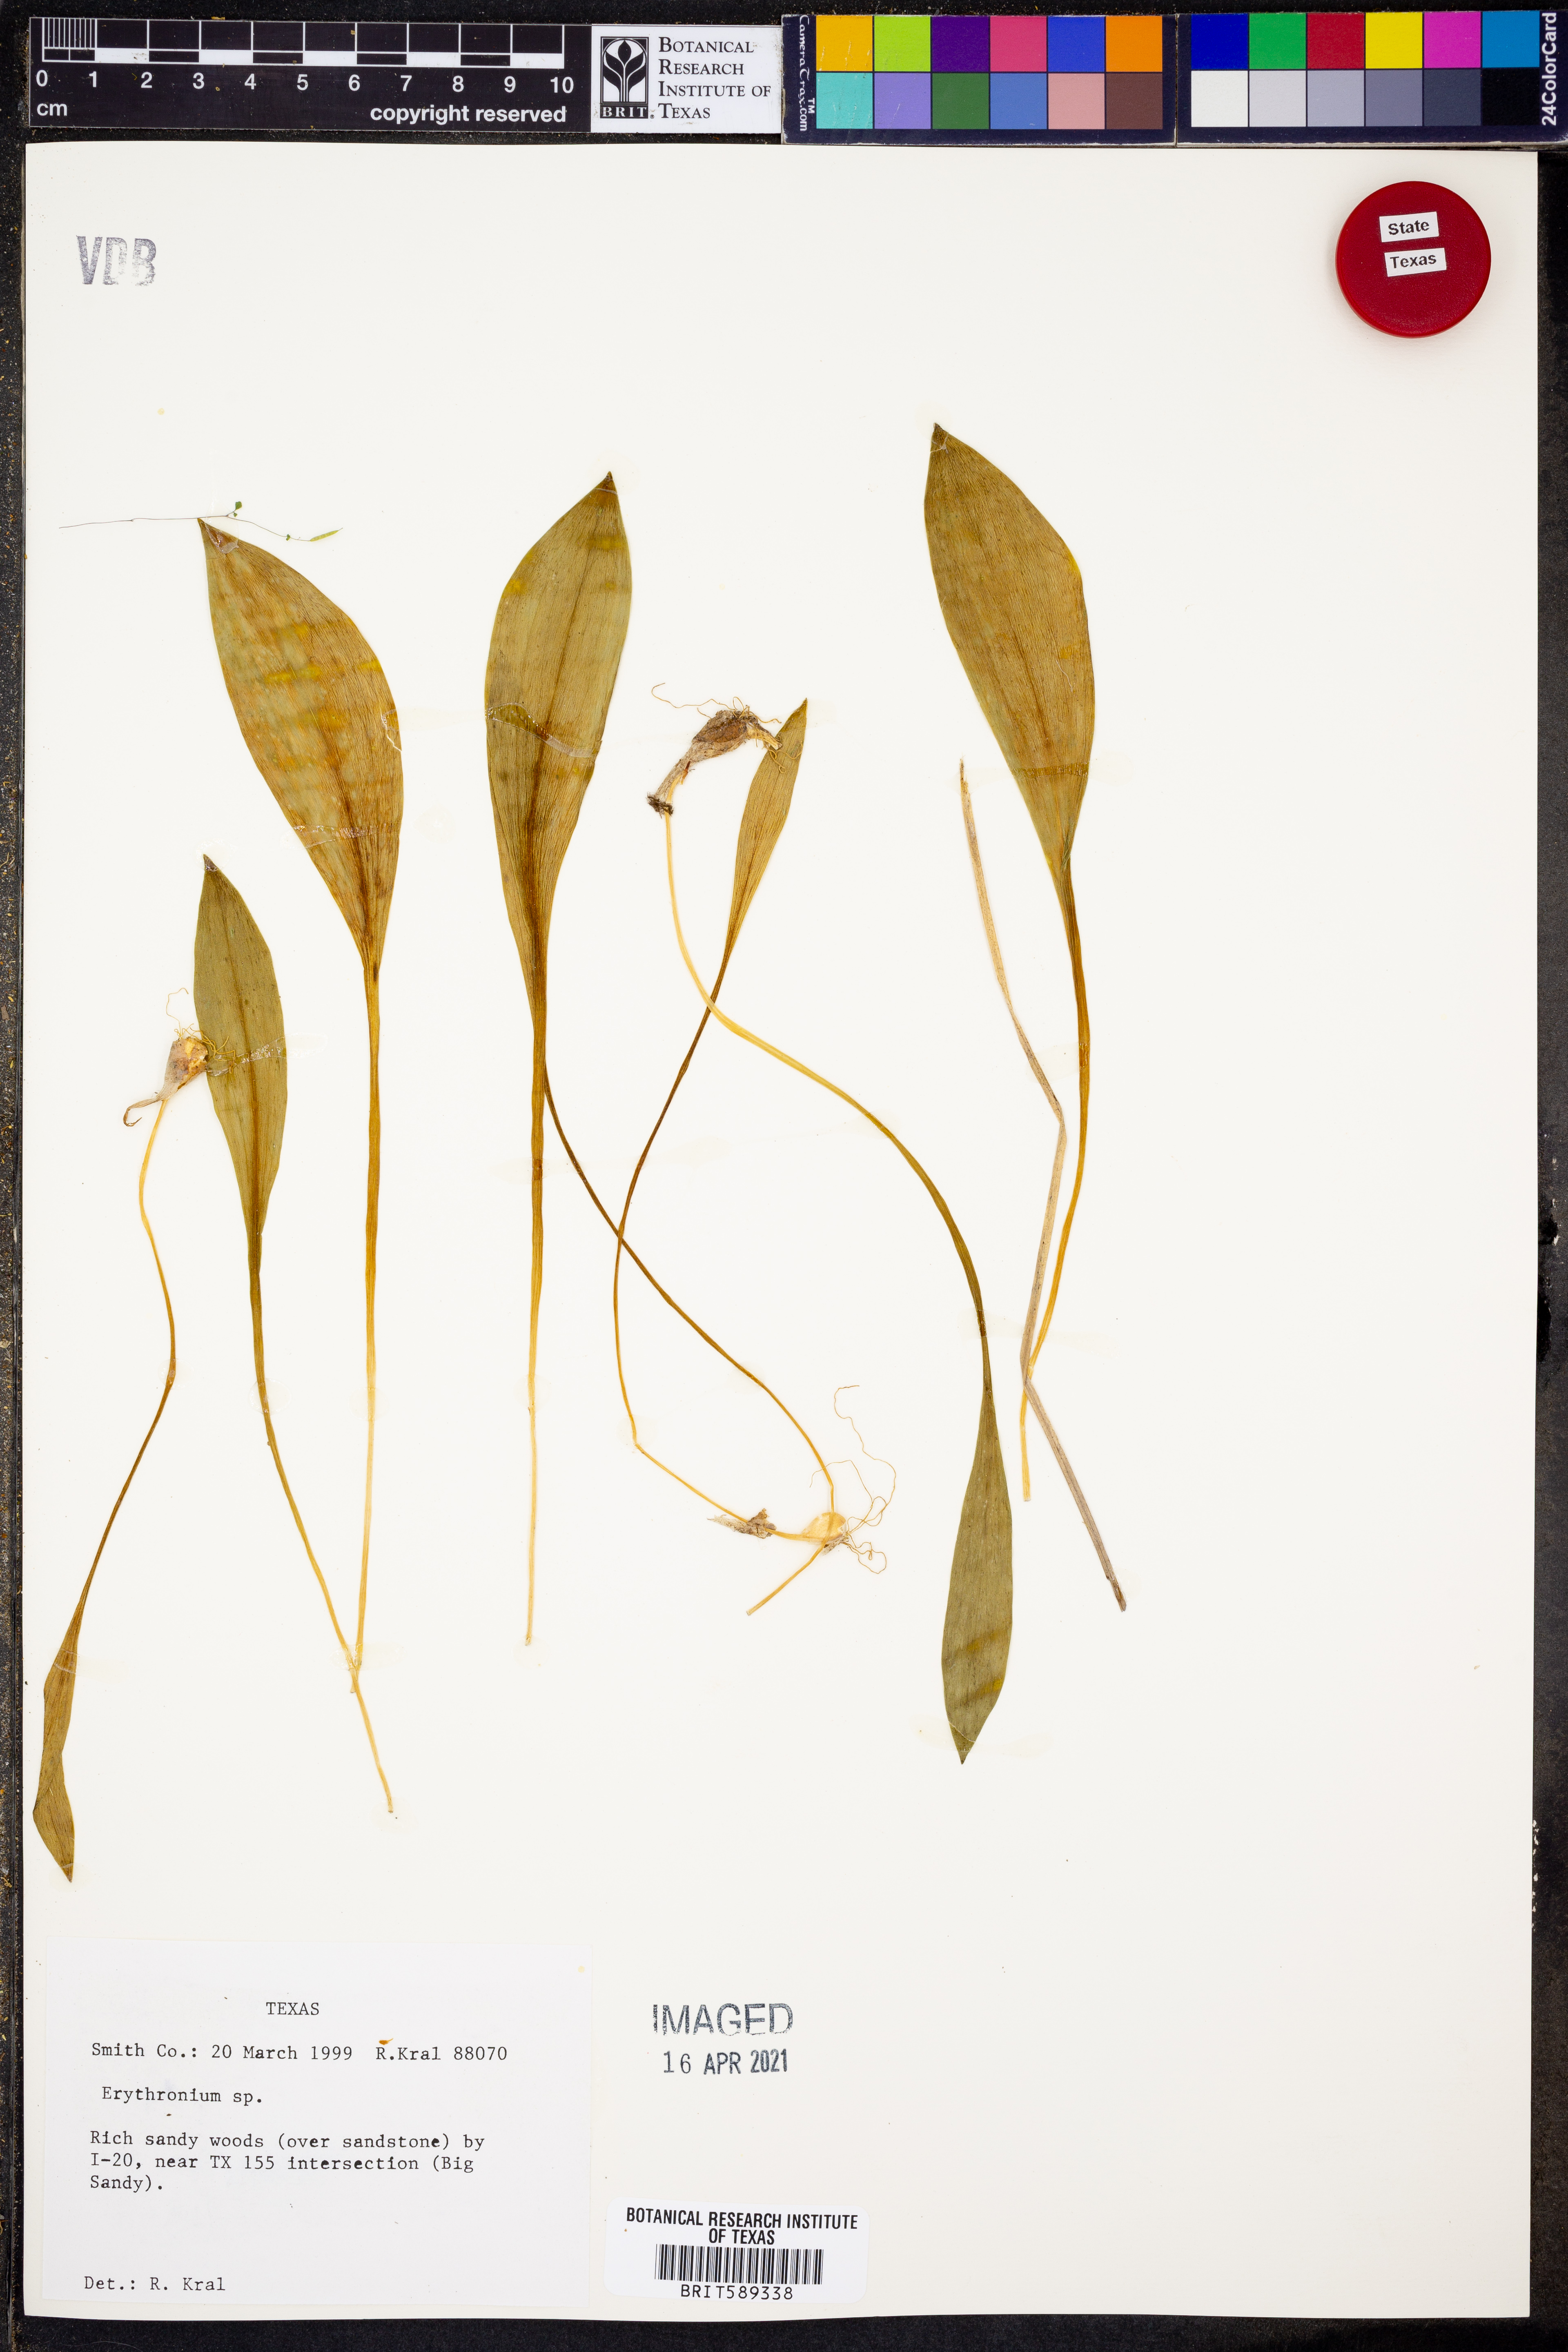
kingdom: Plantae
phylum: Tracheophyta
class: Liliopsida
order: Liliales
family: Liliaceae
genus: Erythronium
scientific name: Erythronium
